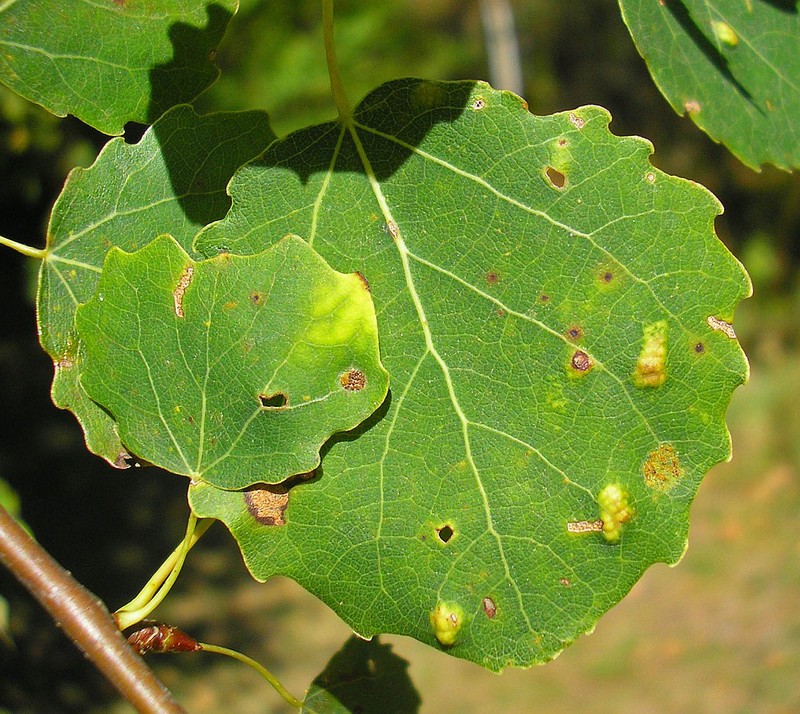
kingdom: Animalia
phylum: Arthropoda
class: Arachnida
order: Trombidiformes
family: Eriophyidae
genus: Phyllocoptes
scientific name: Phyllocoptes populi
